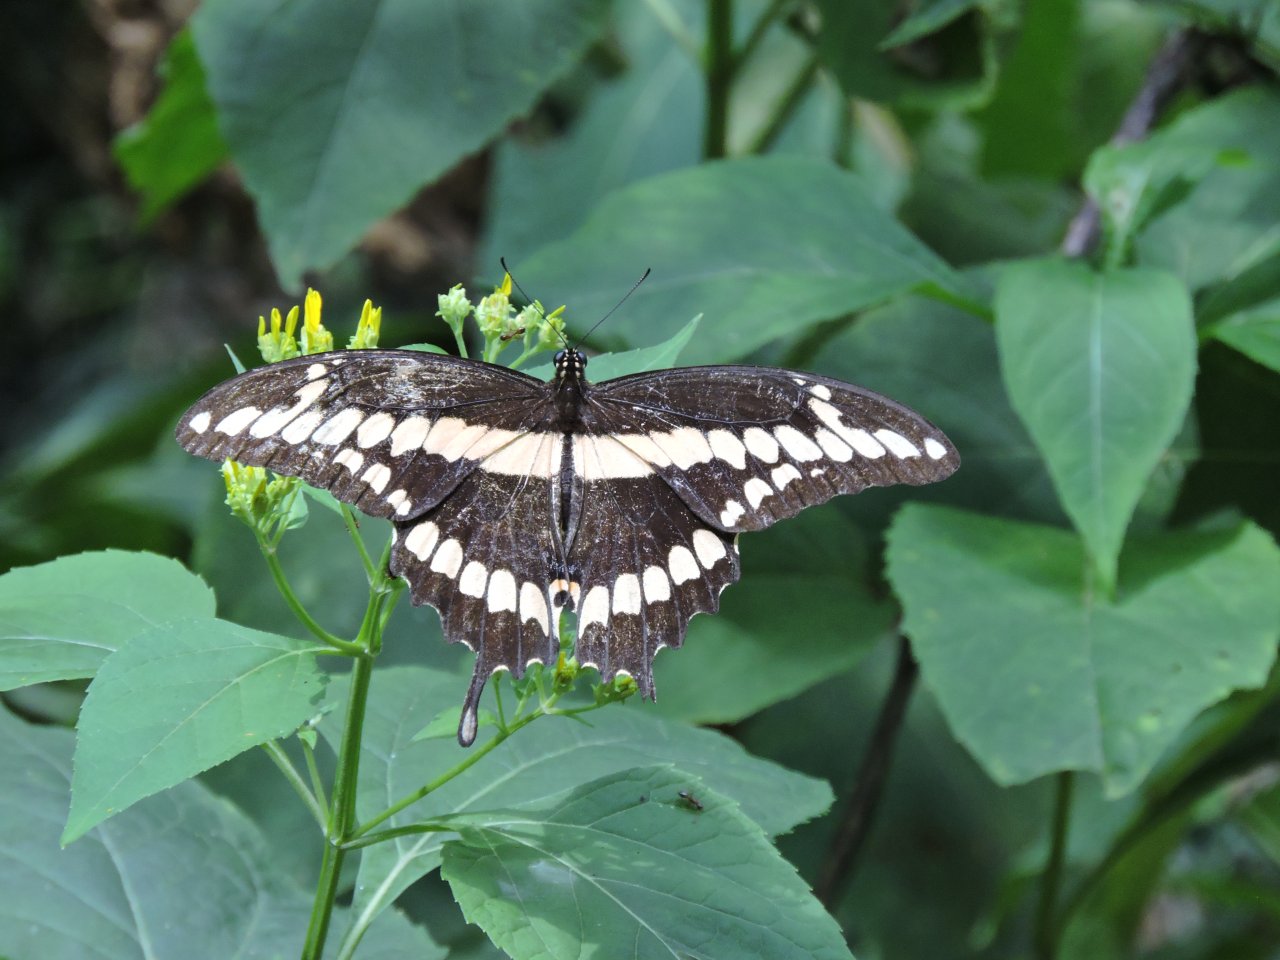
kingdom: Animalia
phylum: Arthropoda
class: Insecta
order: Lepidoptera
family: Papilionidae
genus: Papilio
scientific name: Papilio cresphontes
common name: Eastern Giant Swallowtail
